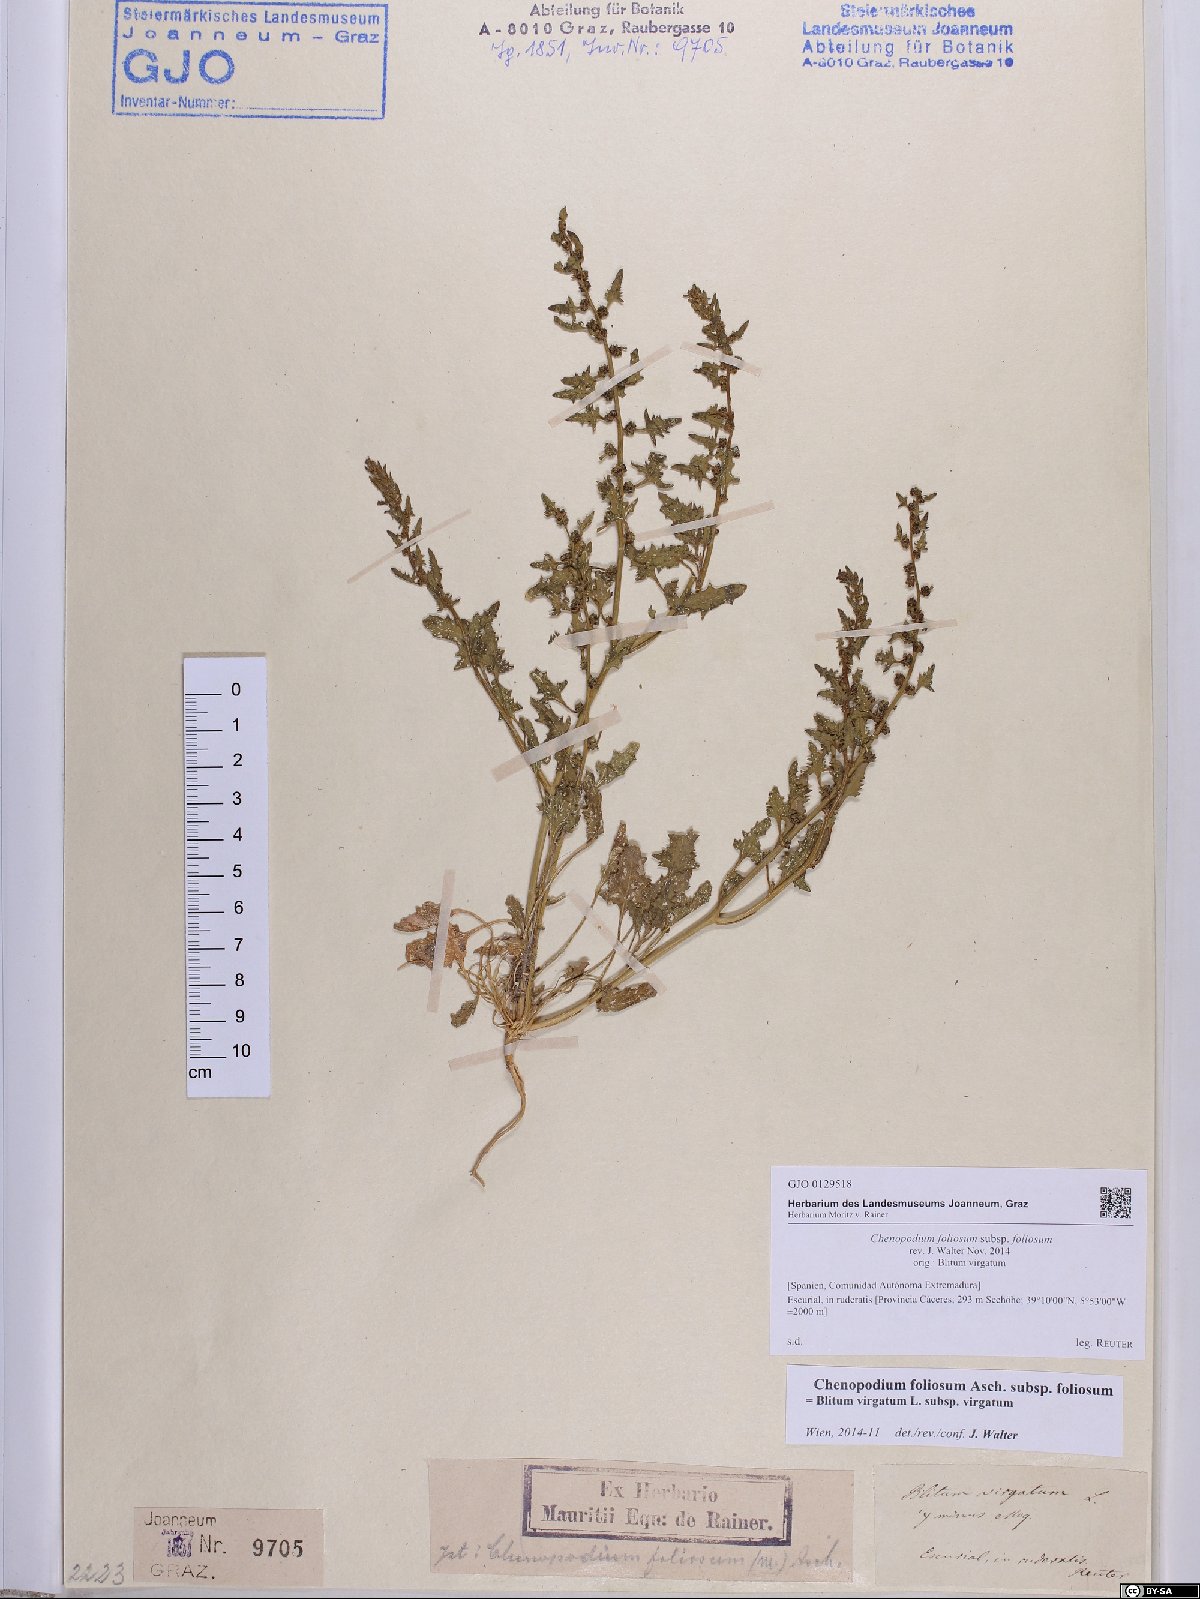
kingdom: Plantae
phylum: Tracheophyta
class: Magnoliopsida
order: Caryophyllales
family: Amaranthaceae
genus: Blitum
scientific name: Blitum virgatum
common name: Strawberry goosefoot
